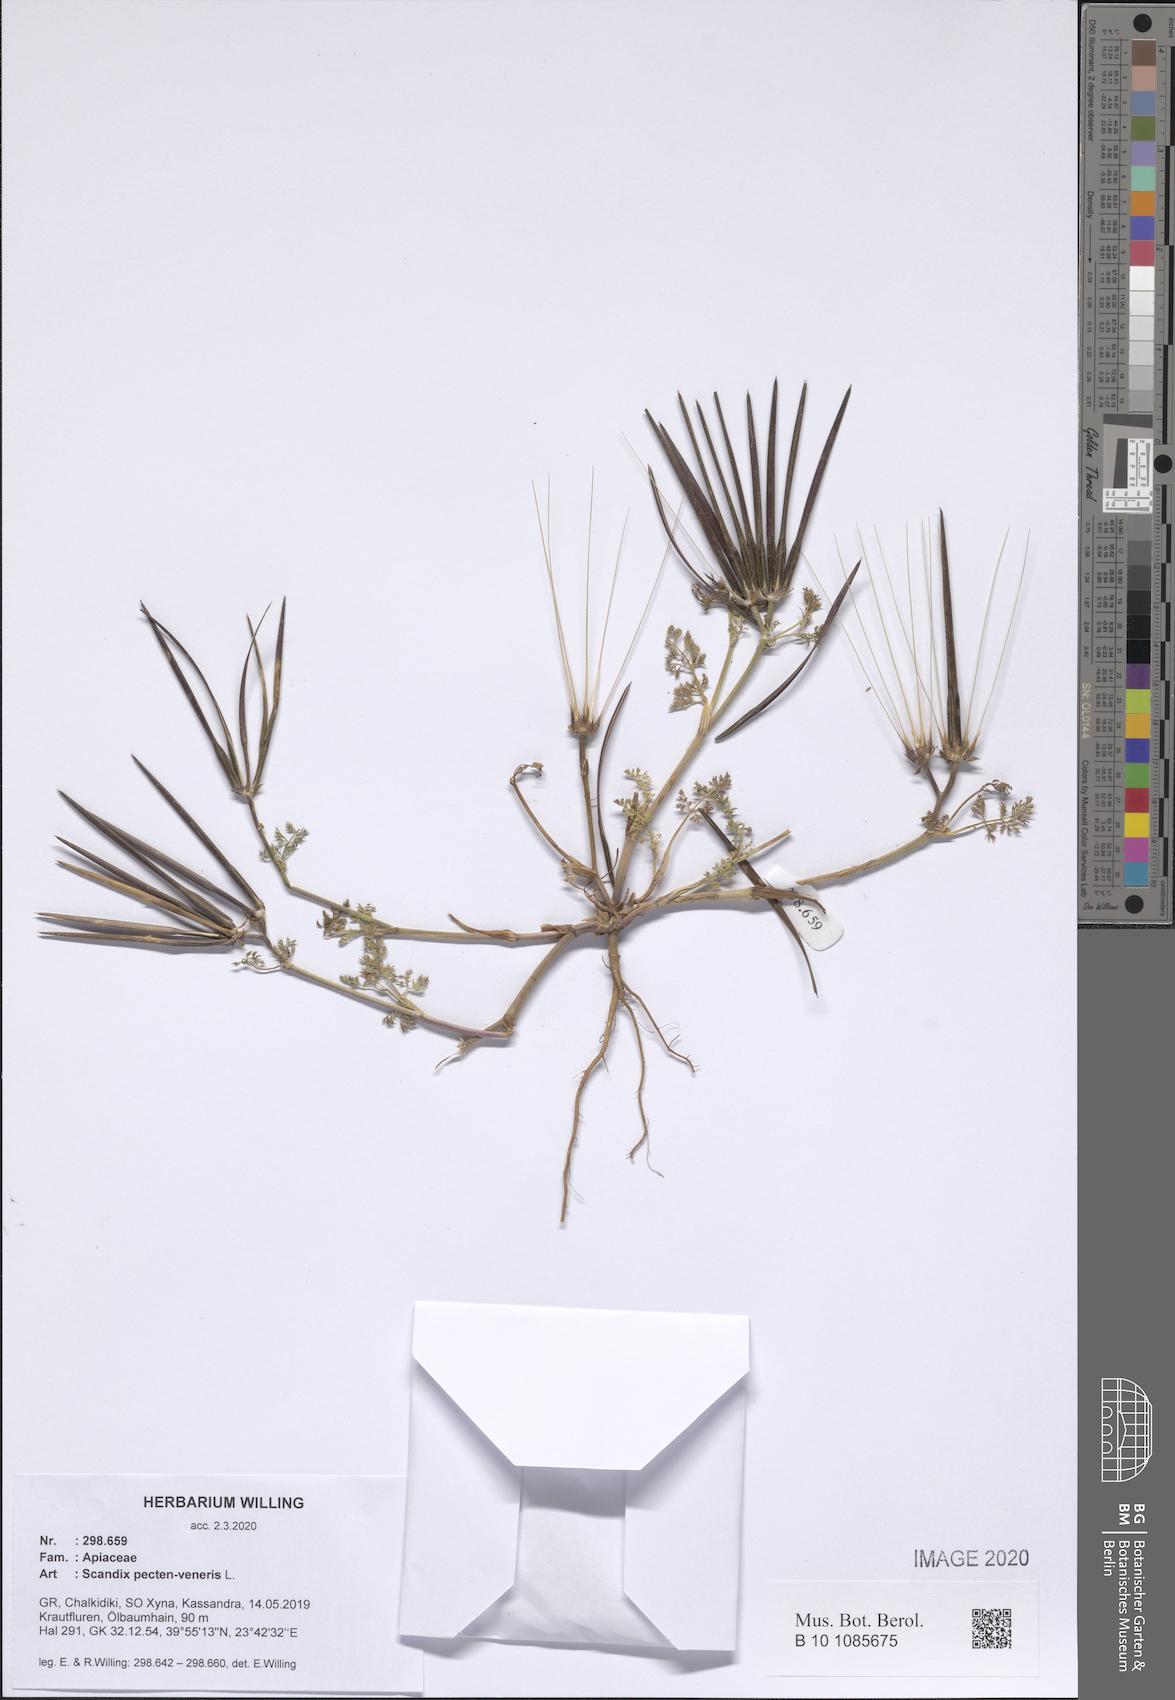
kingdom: Plantae
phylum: Tracheophyta
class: Magnoliopsida
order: Apiales
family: Apiaceae
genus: Scandix
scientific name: Scandix pecten-veneris
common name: Shepherd's-needle
